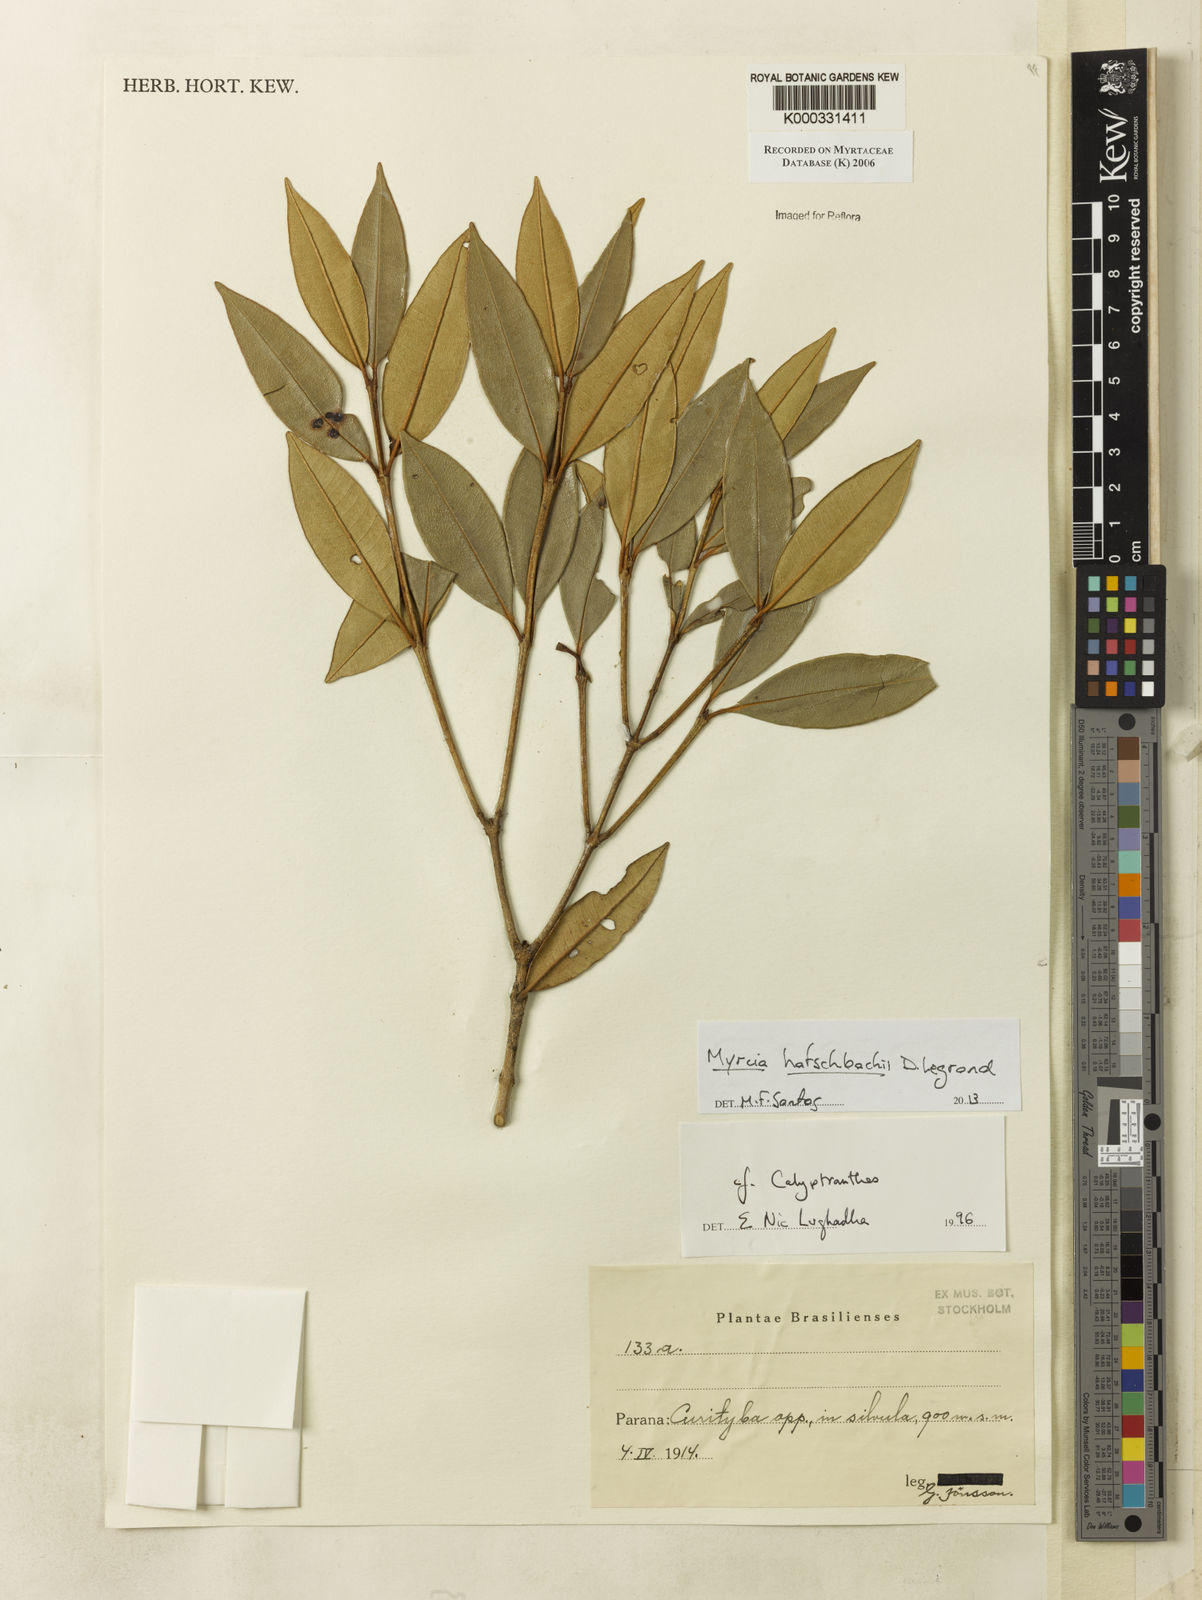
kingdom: Plantae
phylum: Tracheophyta
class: Magnoliopsida
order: Myrtales
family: Myrtaceae
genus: Calyptranthes
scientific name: Calyptranthes
